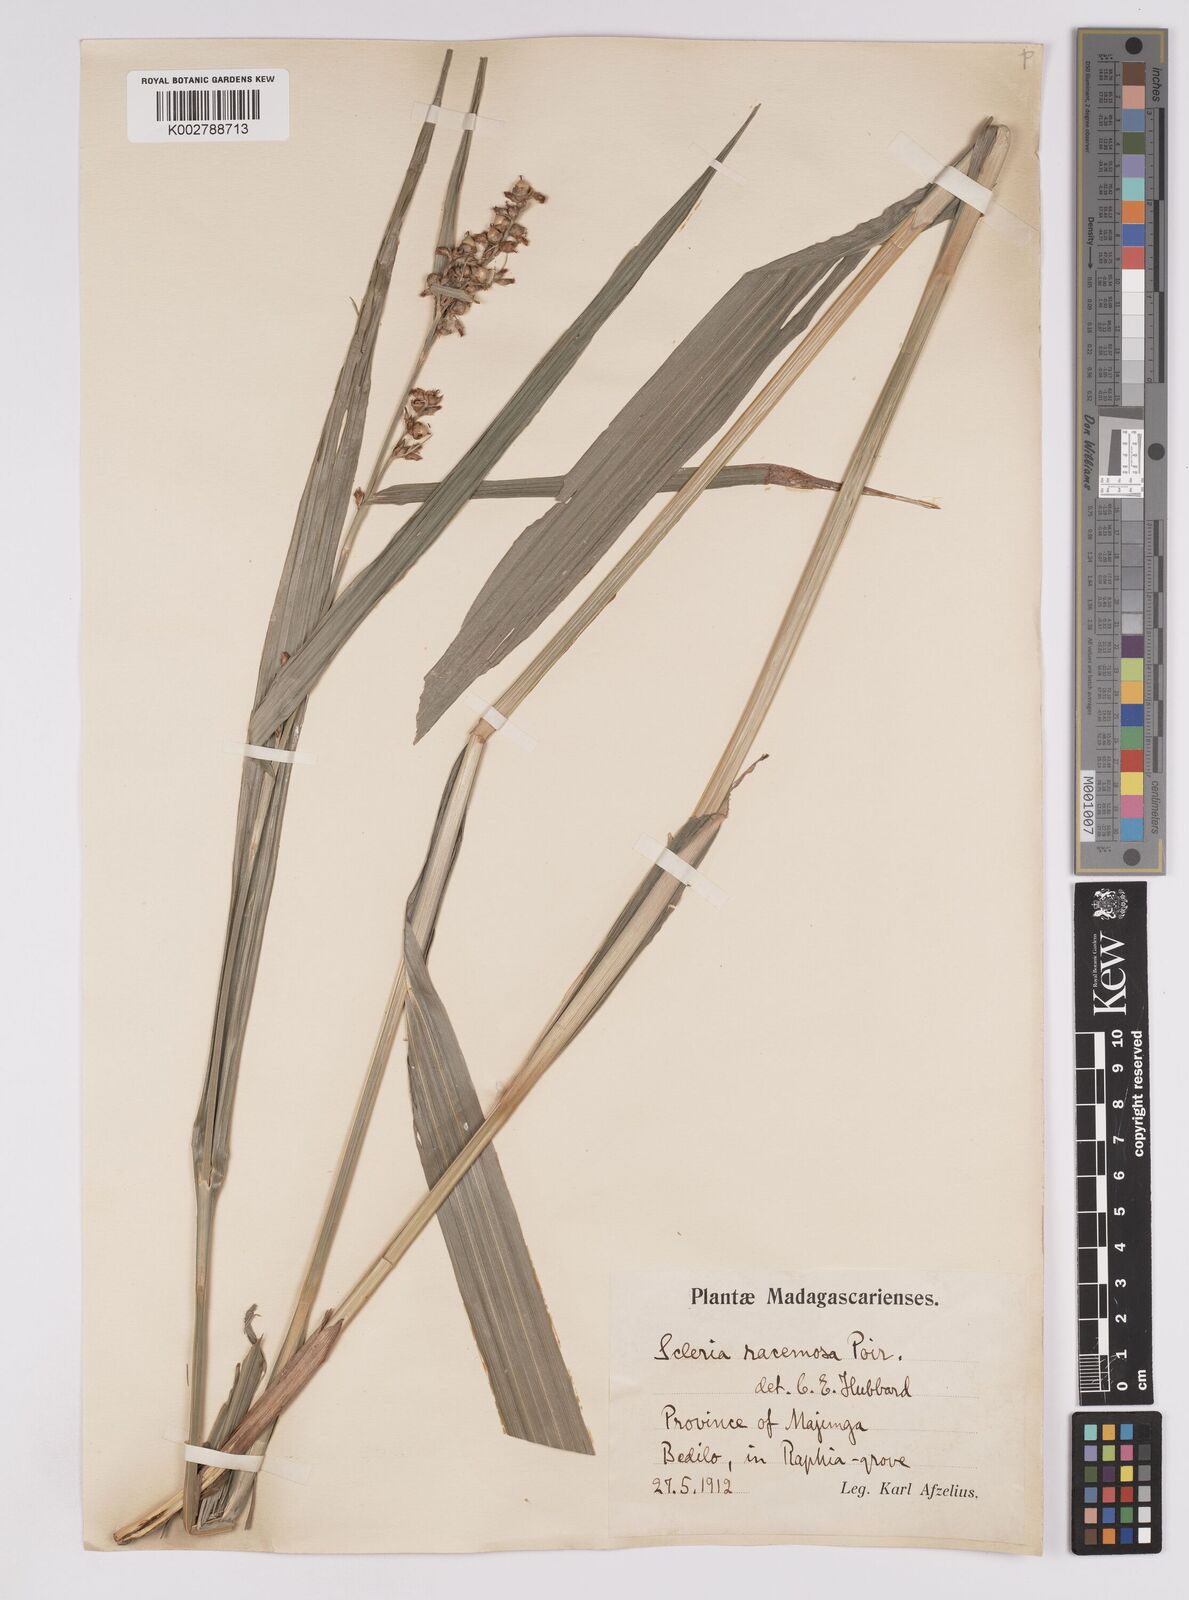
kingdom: Plantae
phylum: Tracheophyta
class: Liliopsida
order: Poales
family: Cyperaceae
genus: Scleria
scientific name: Scleria racemosa
